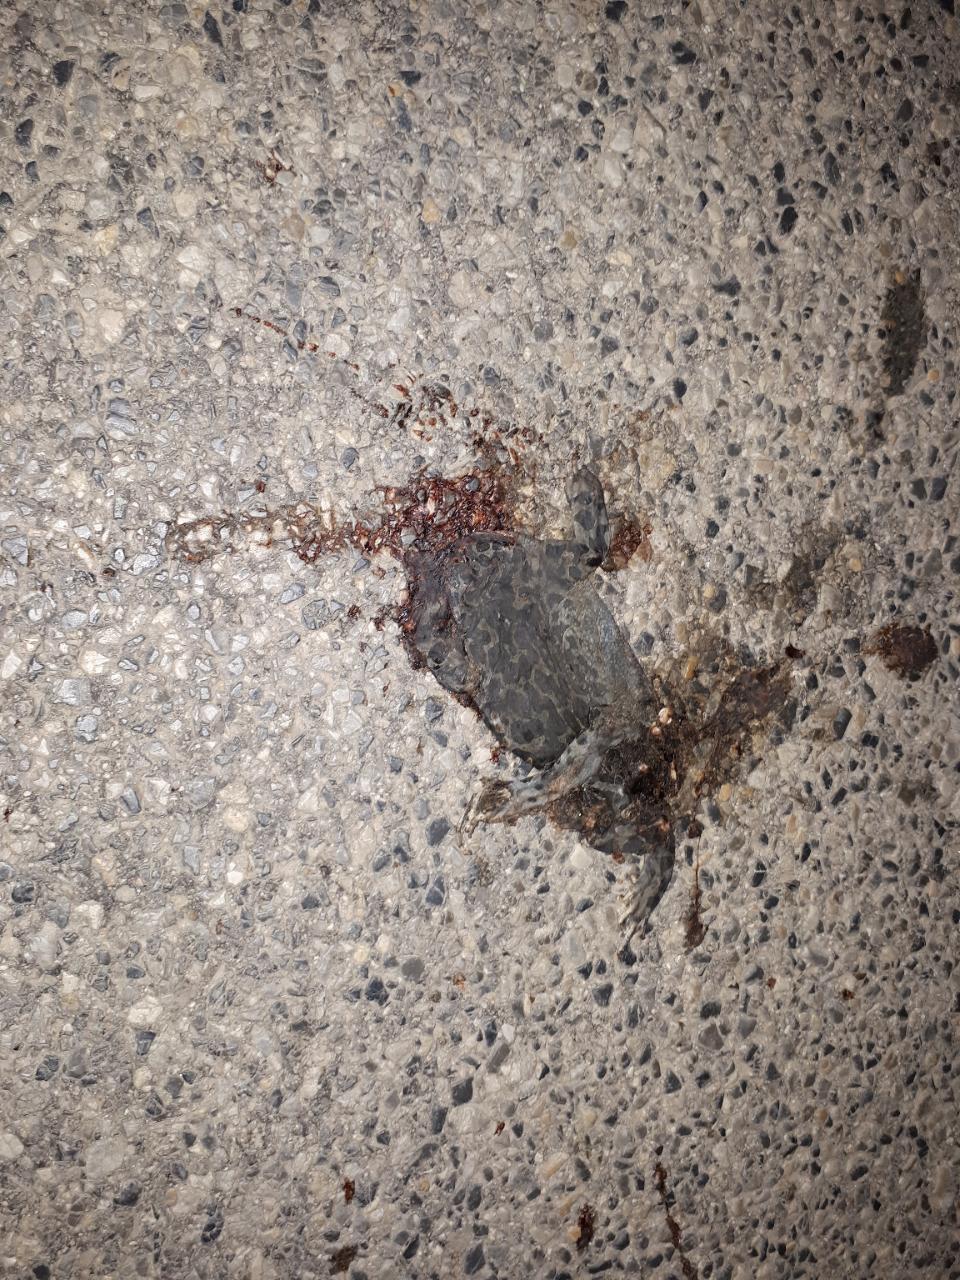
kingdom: Animalia
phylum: Chordata
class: Amphibia
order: Anura
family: Bufonidae
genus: Bufotes
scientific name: Bufotes viridis
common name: European green toad
